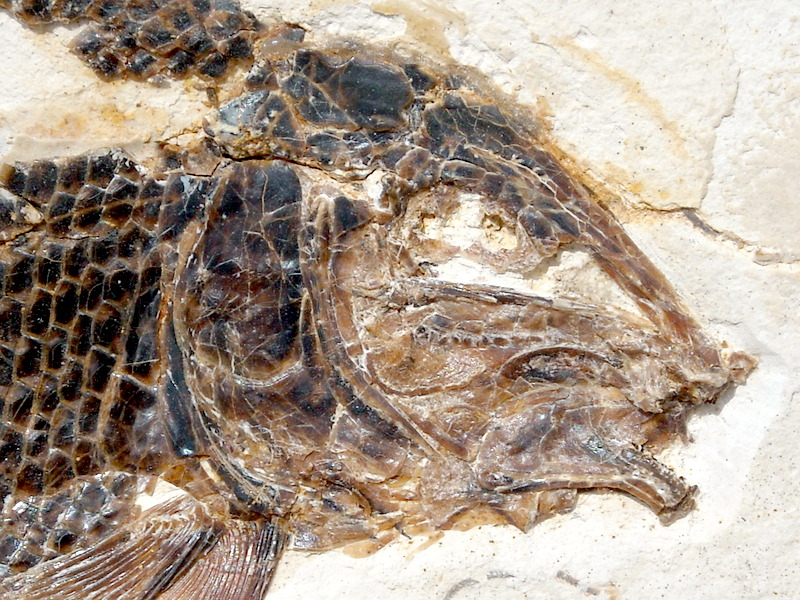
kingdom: Animalia
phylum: Chordata
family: Callipurbeckiidae
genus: Macrosemimimus
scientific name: Macrosemimimus fegerti
